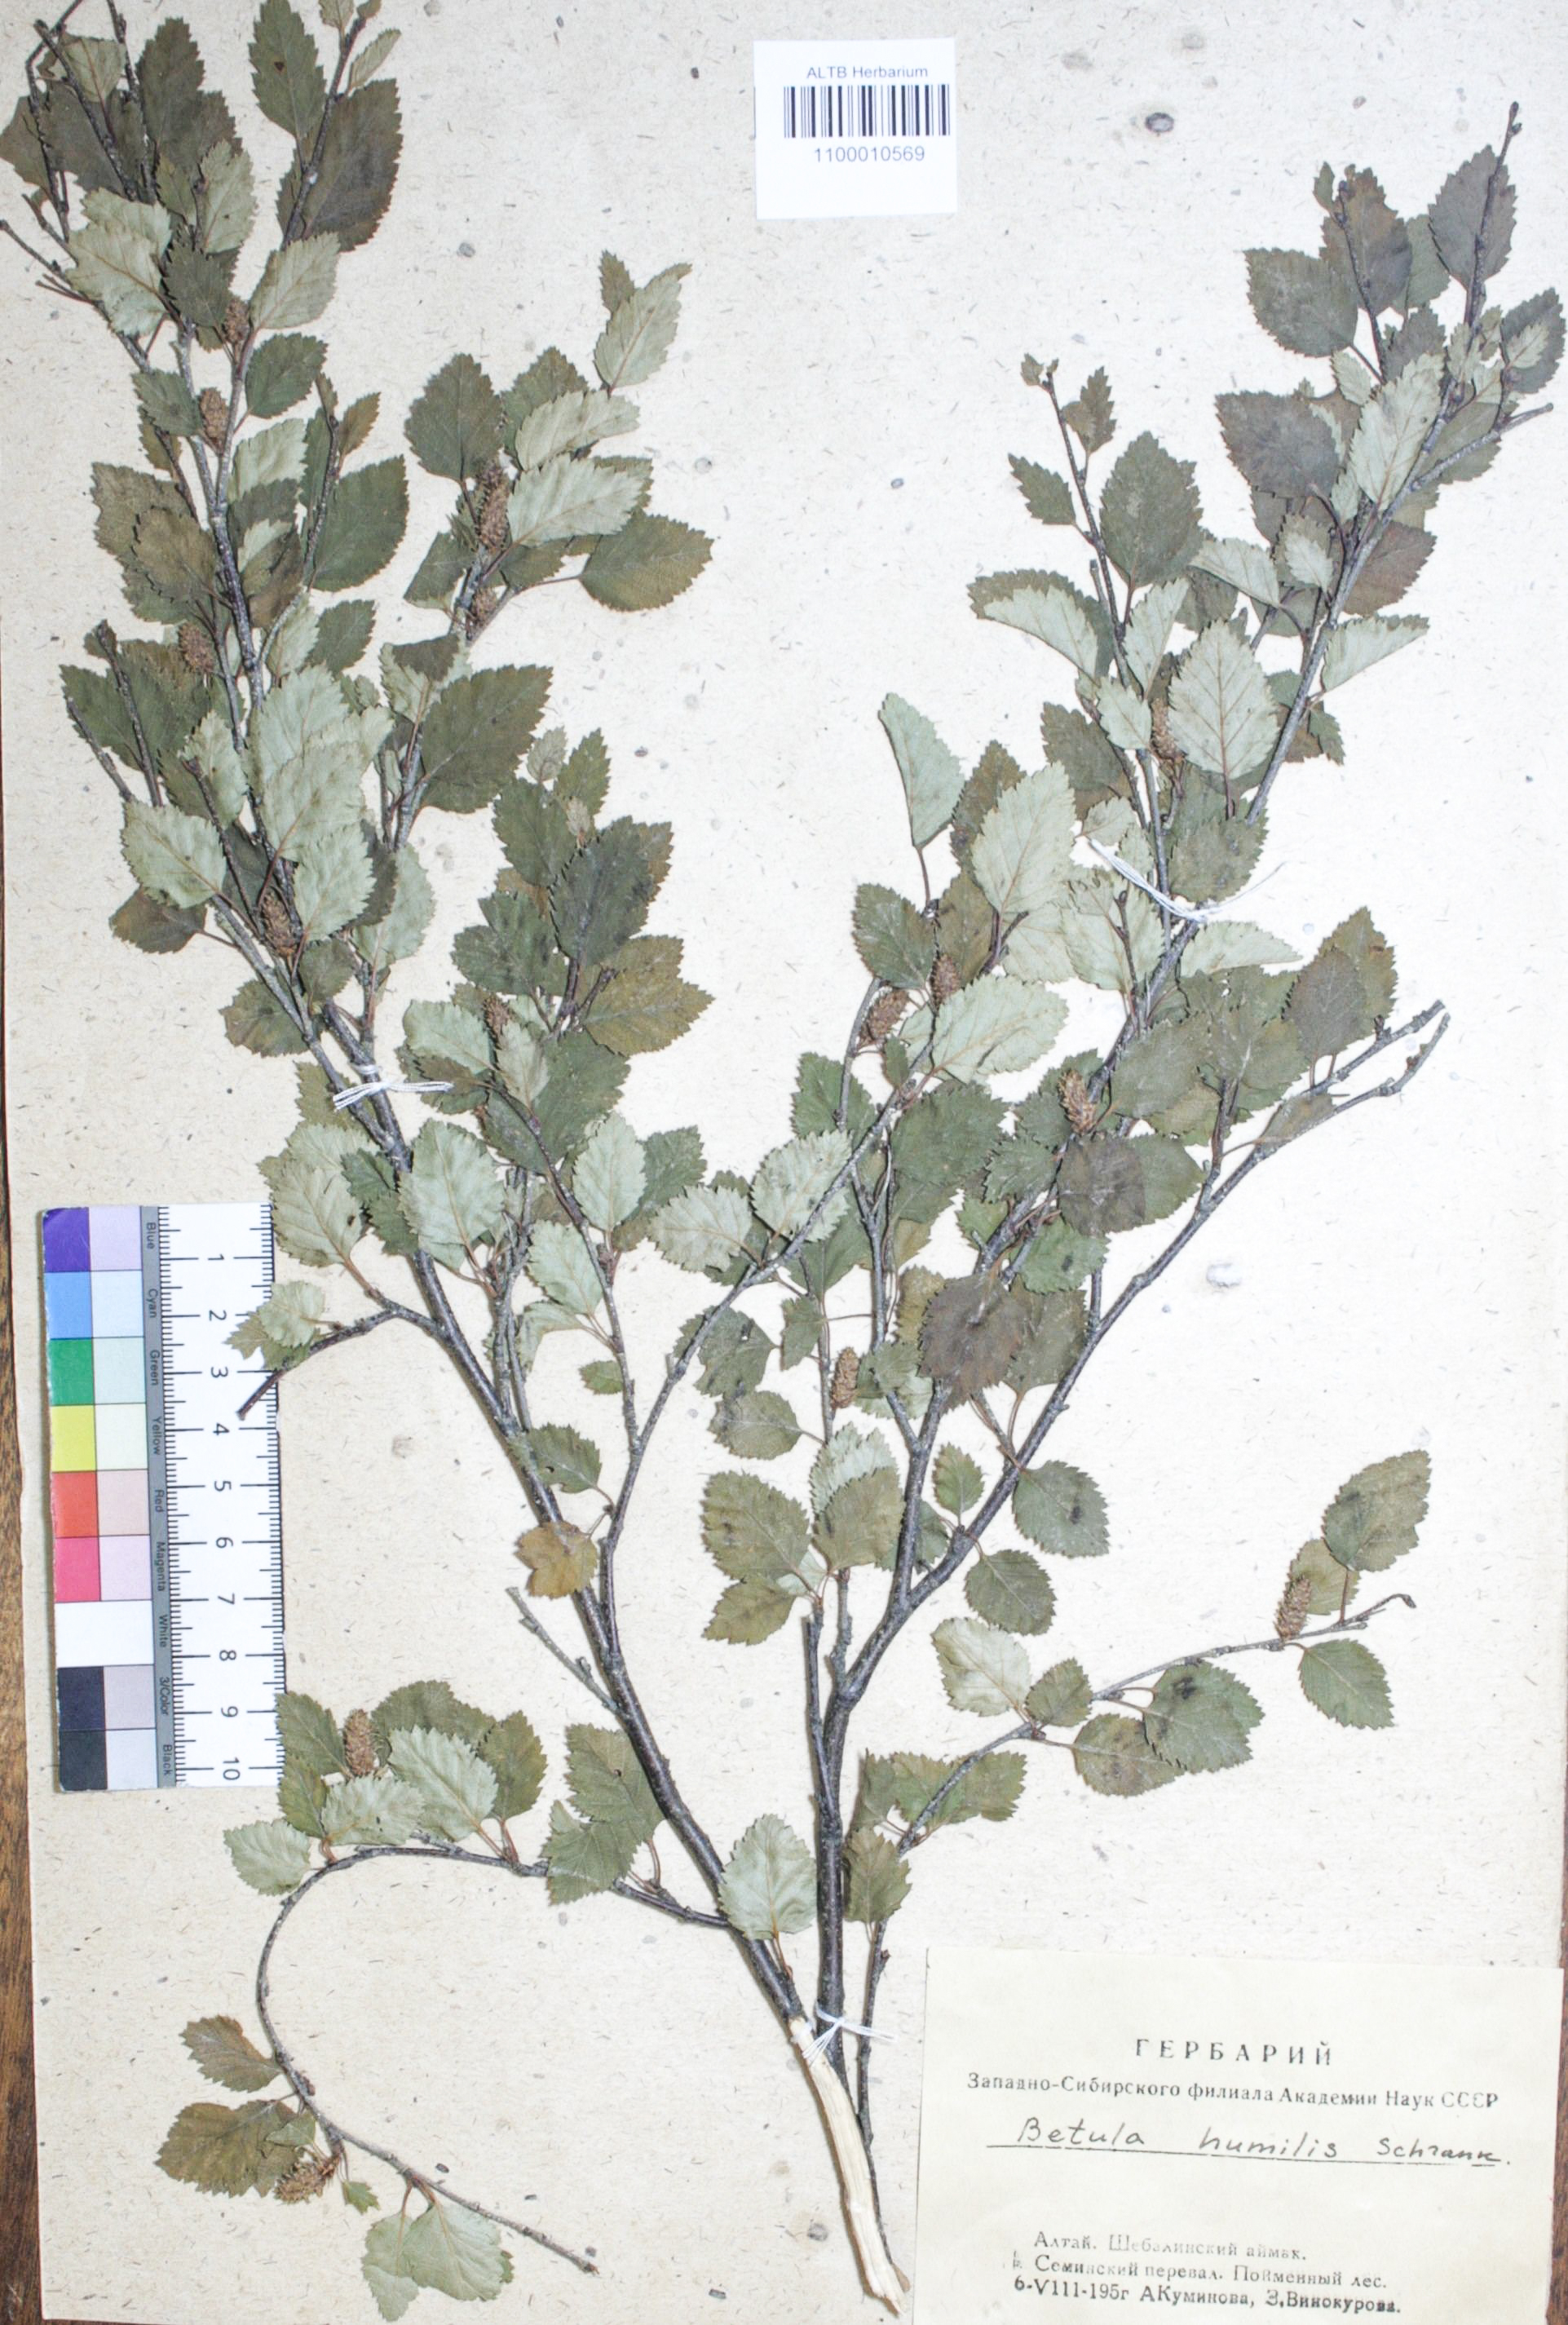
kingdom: Plantae
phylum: Tracheophyta
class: Magnoliopsida
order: Fagales
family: Betulaceae
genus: Betula
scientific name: Betula humilis
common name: Shrubby birch
